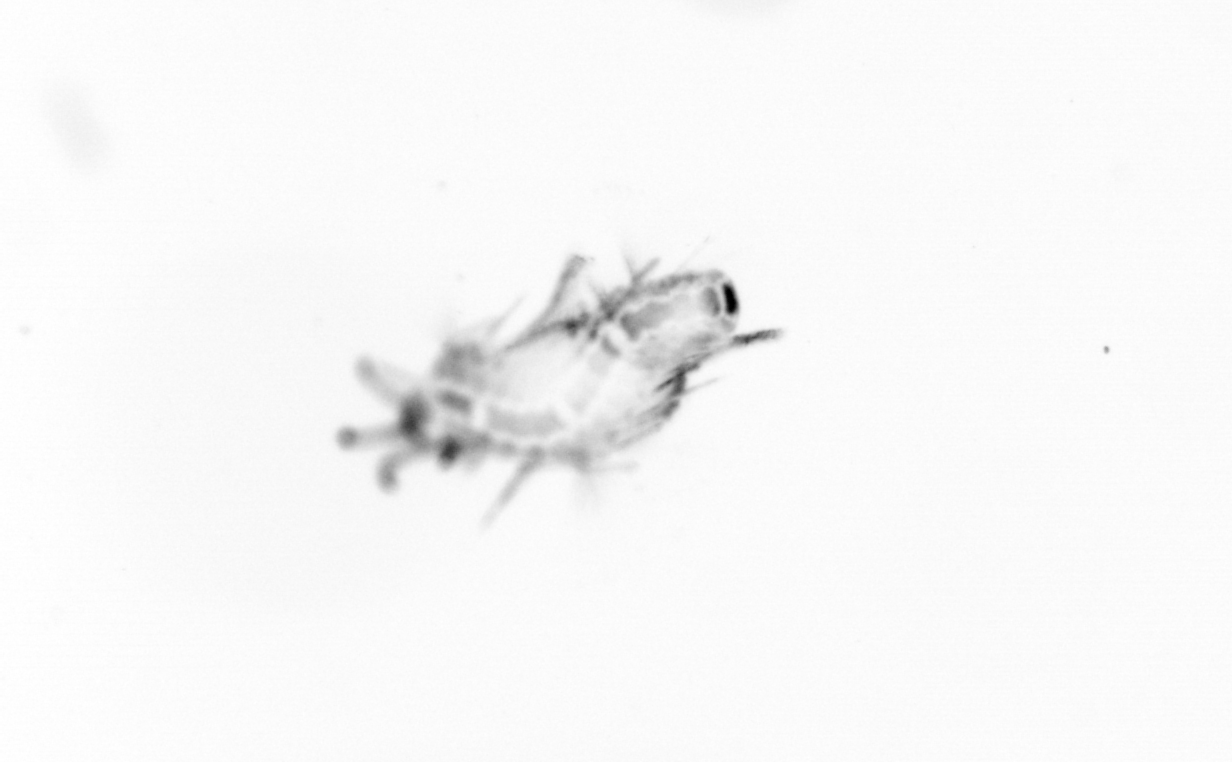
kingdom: Animalia
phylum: Annelida
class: Polychaeta
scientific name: Polychaeta
